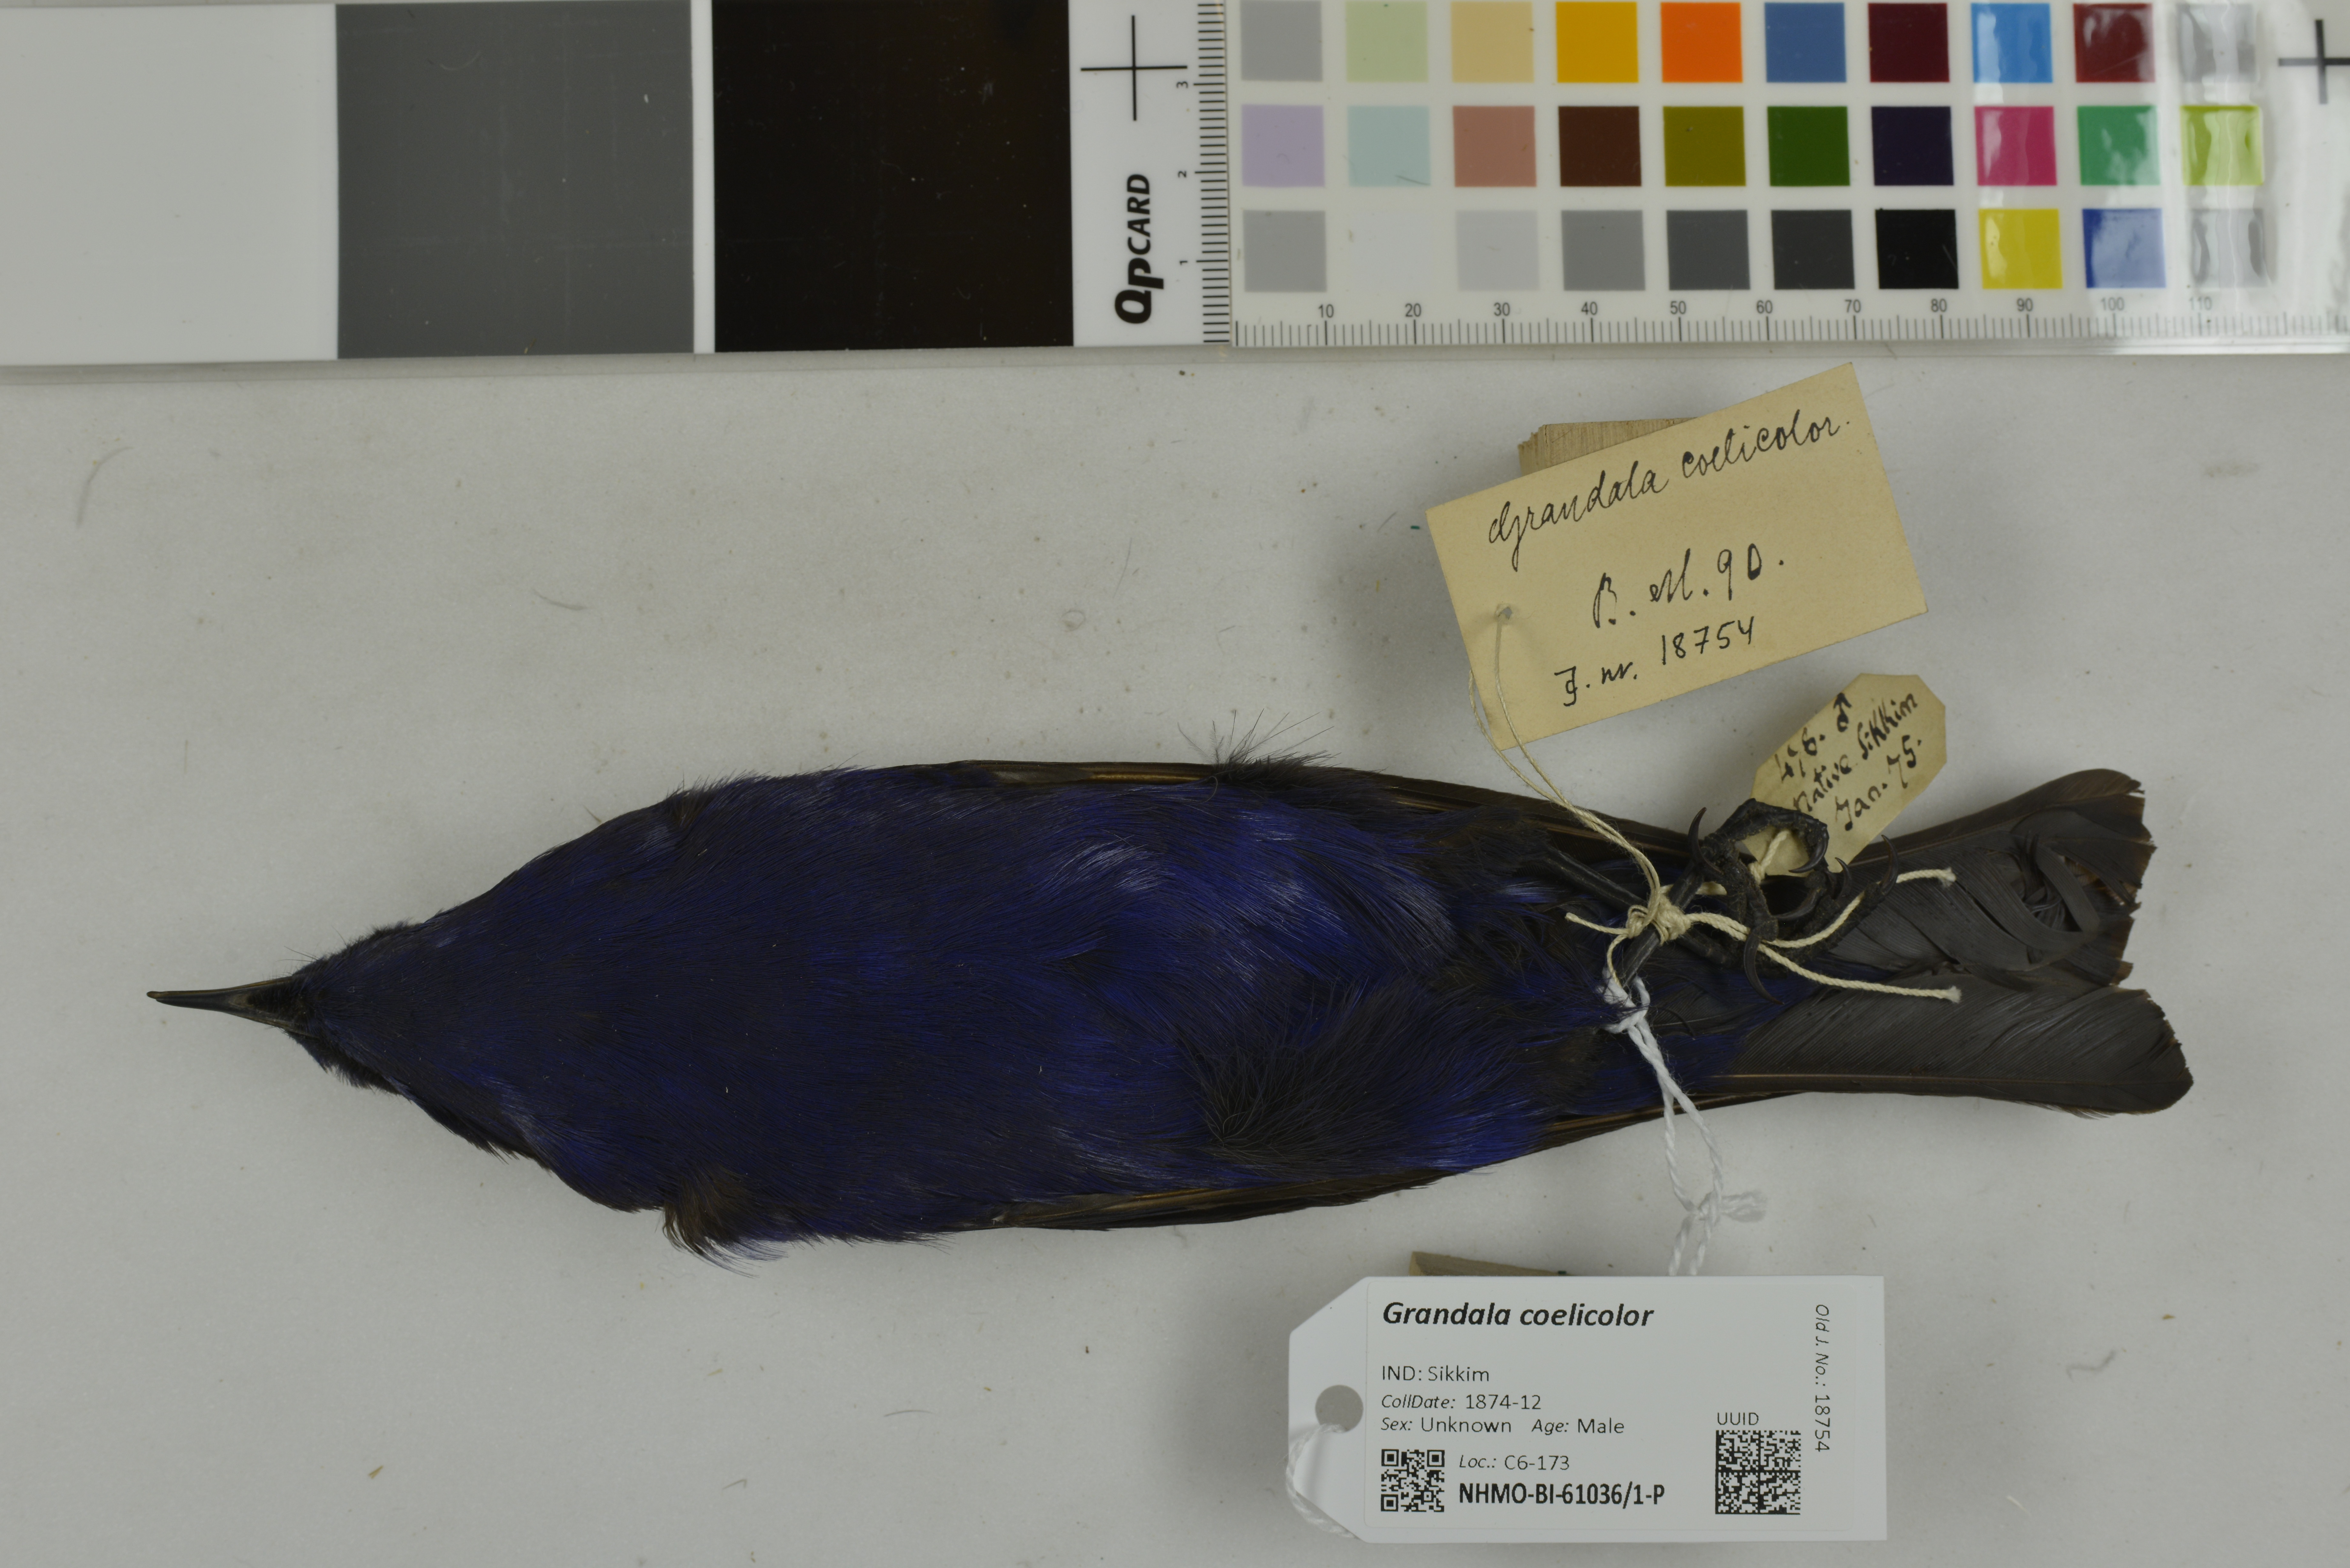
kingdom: Animalia
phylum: Chordata
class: Aves
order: Passeriformes
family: Muscicapidae
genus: Grandala
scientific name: Grandala coelicolor
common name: Grandala
